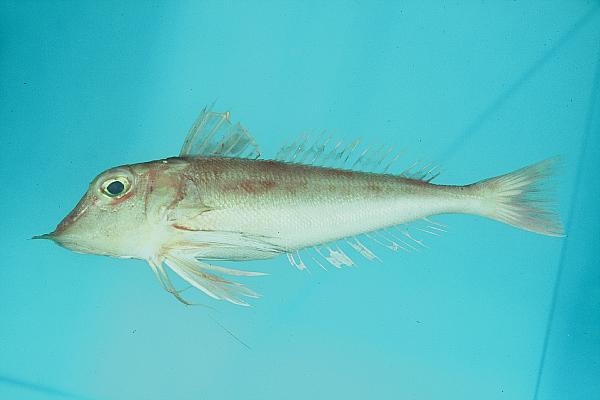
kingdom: Animalia
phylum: Chordata
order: Scorpaeniformes
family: Triglidae
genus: Lepidotrigla
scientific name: Lepidotrigla
